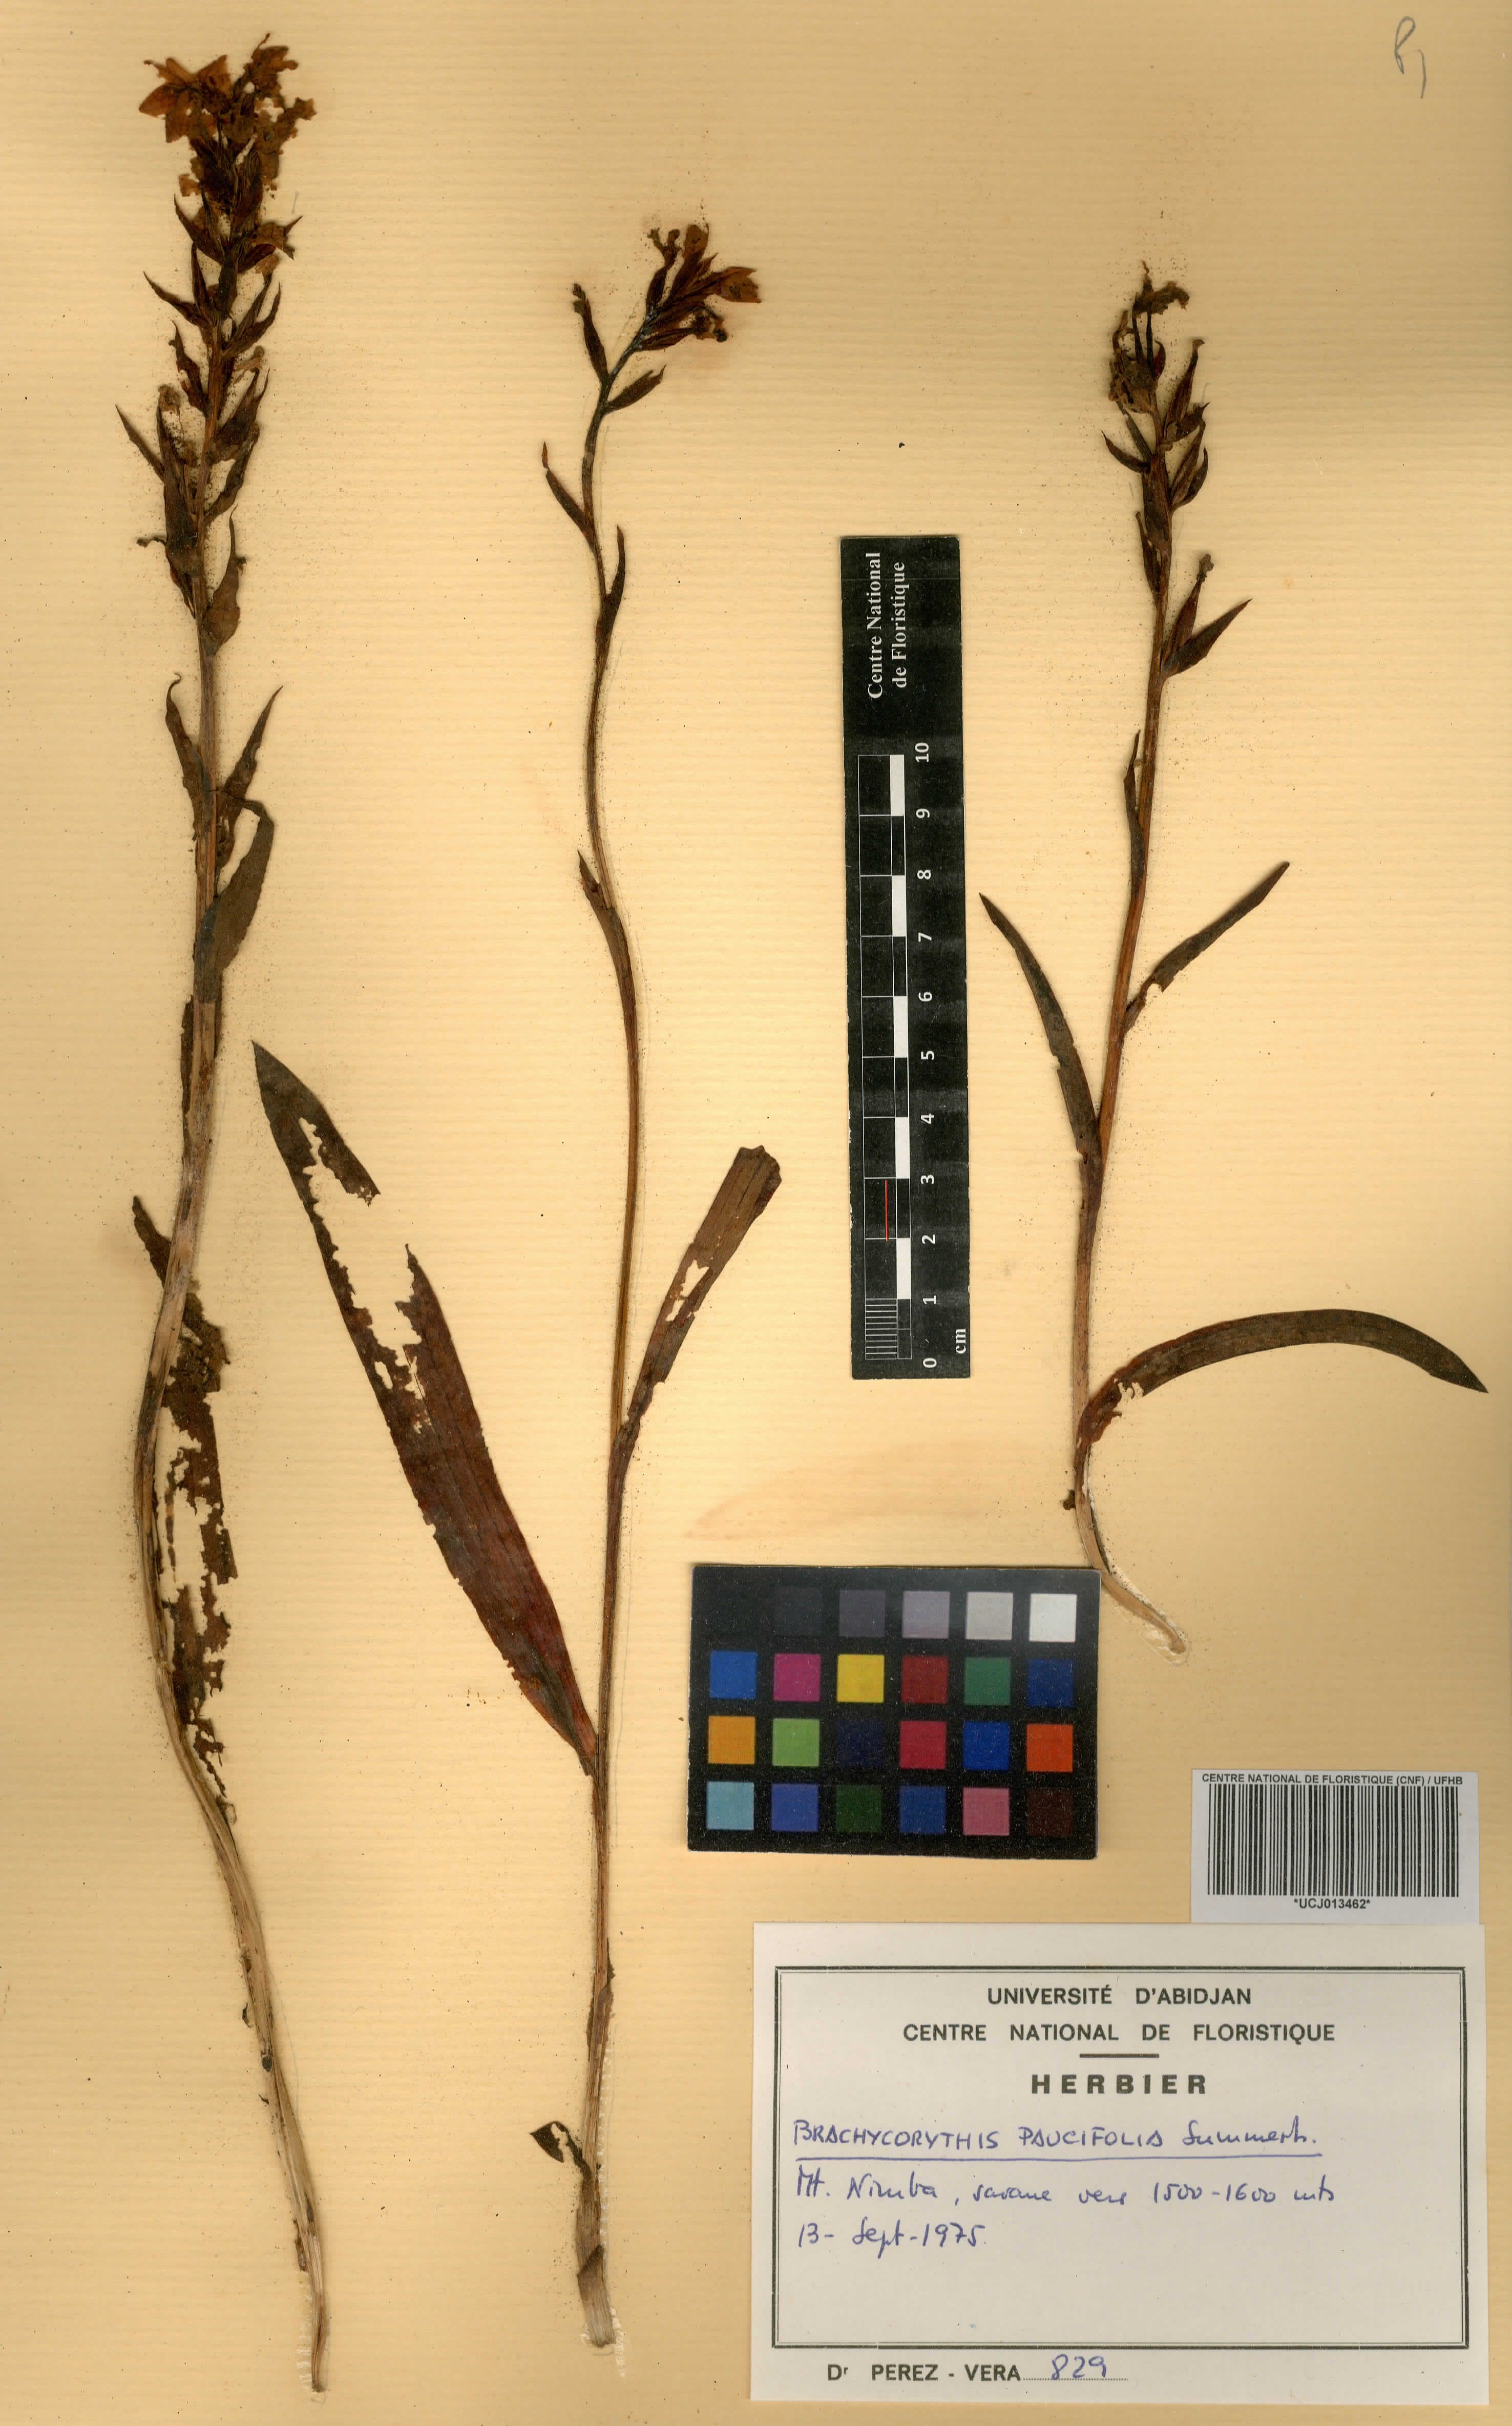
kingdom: Plantae
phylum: Tracheophyta
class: Liliopsida
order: Asparagales
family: Orchidaceae
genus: Brachycorythis
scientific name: Brachycorythis paucifolia
